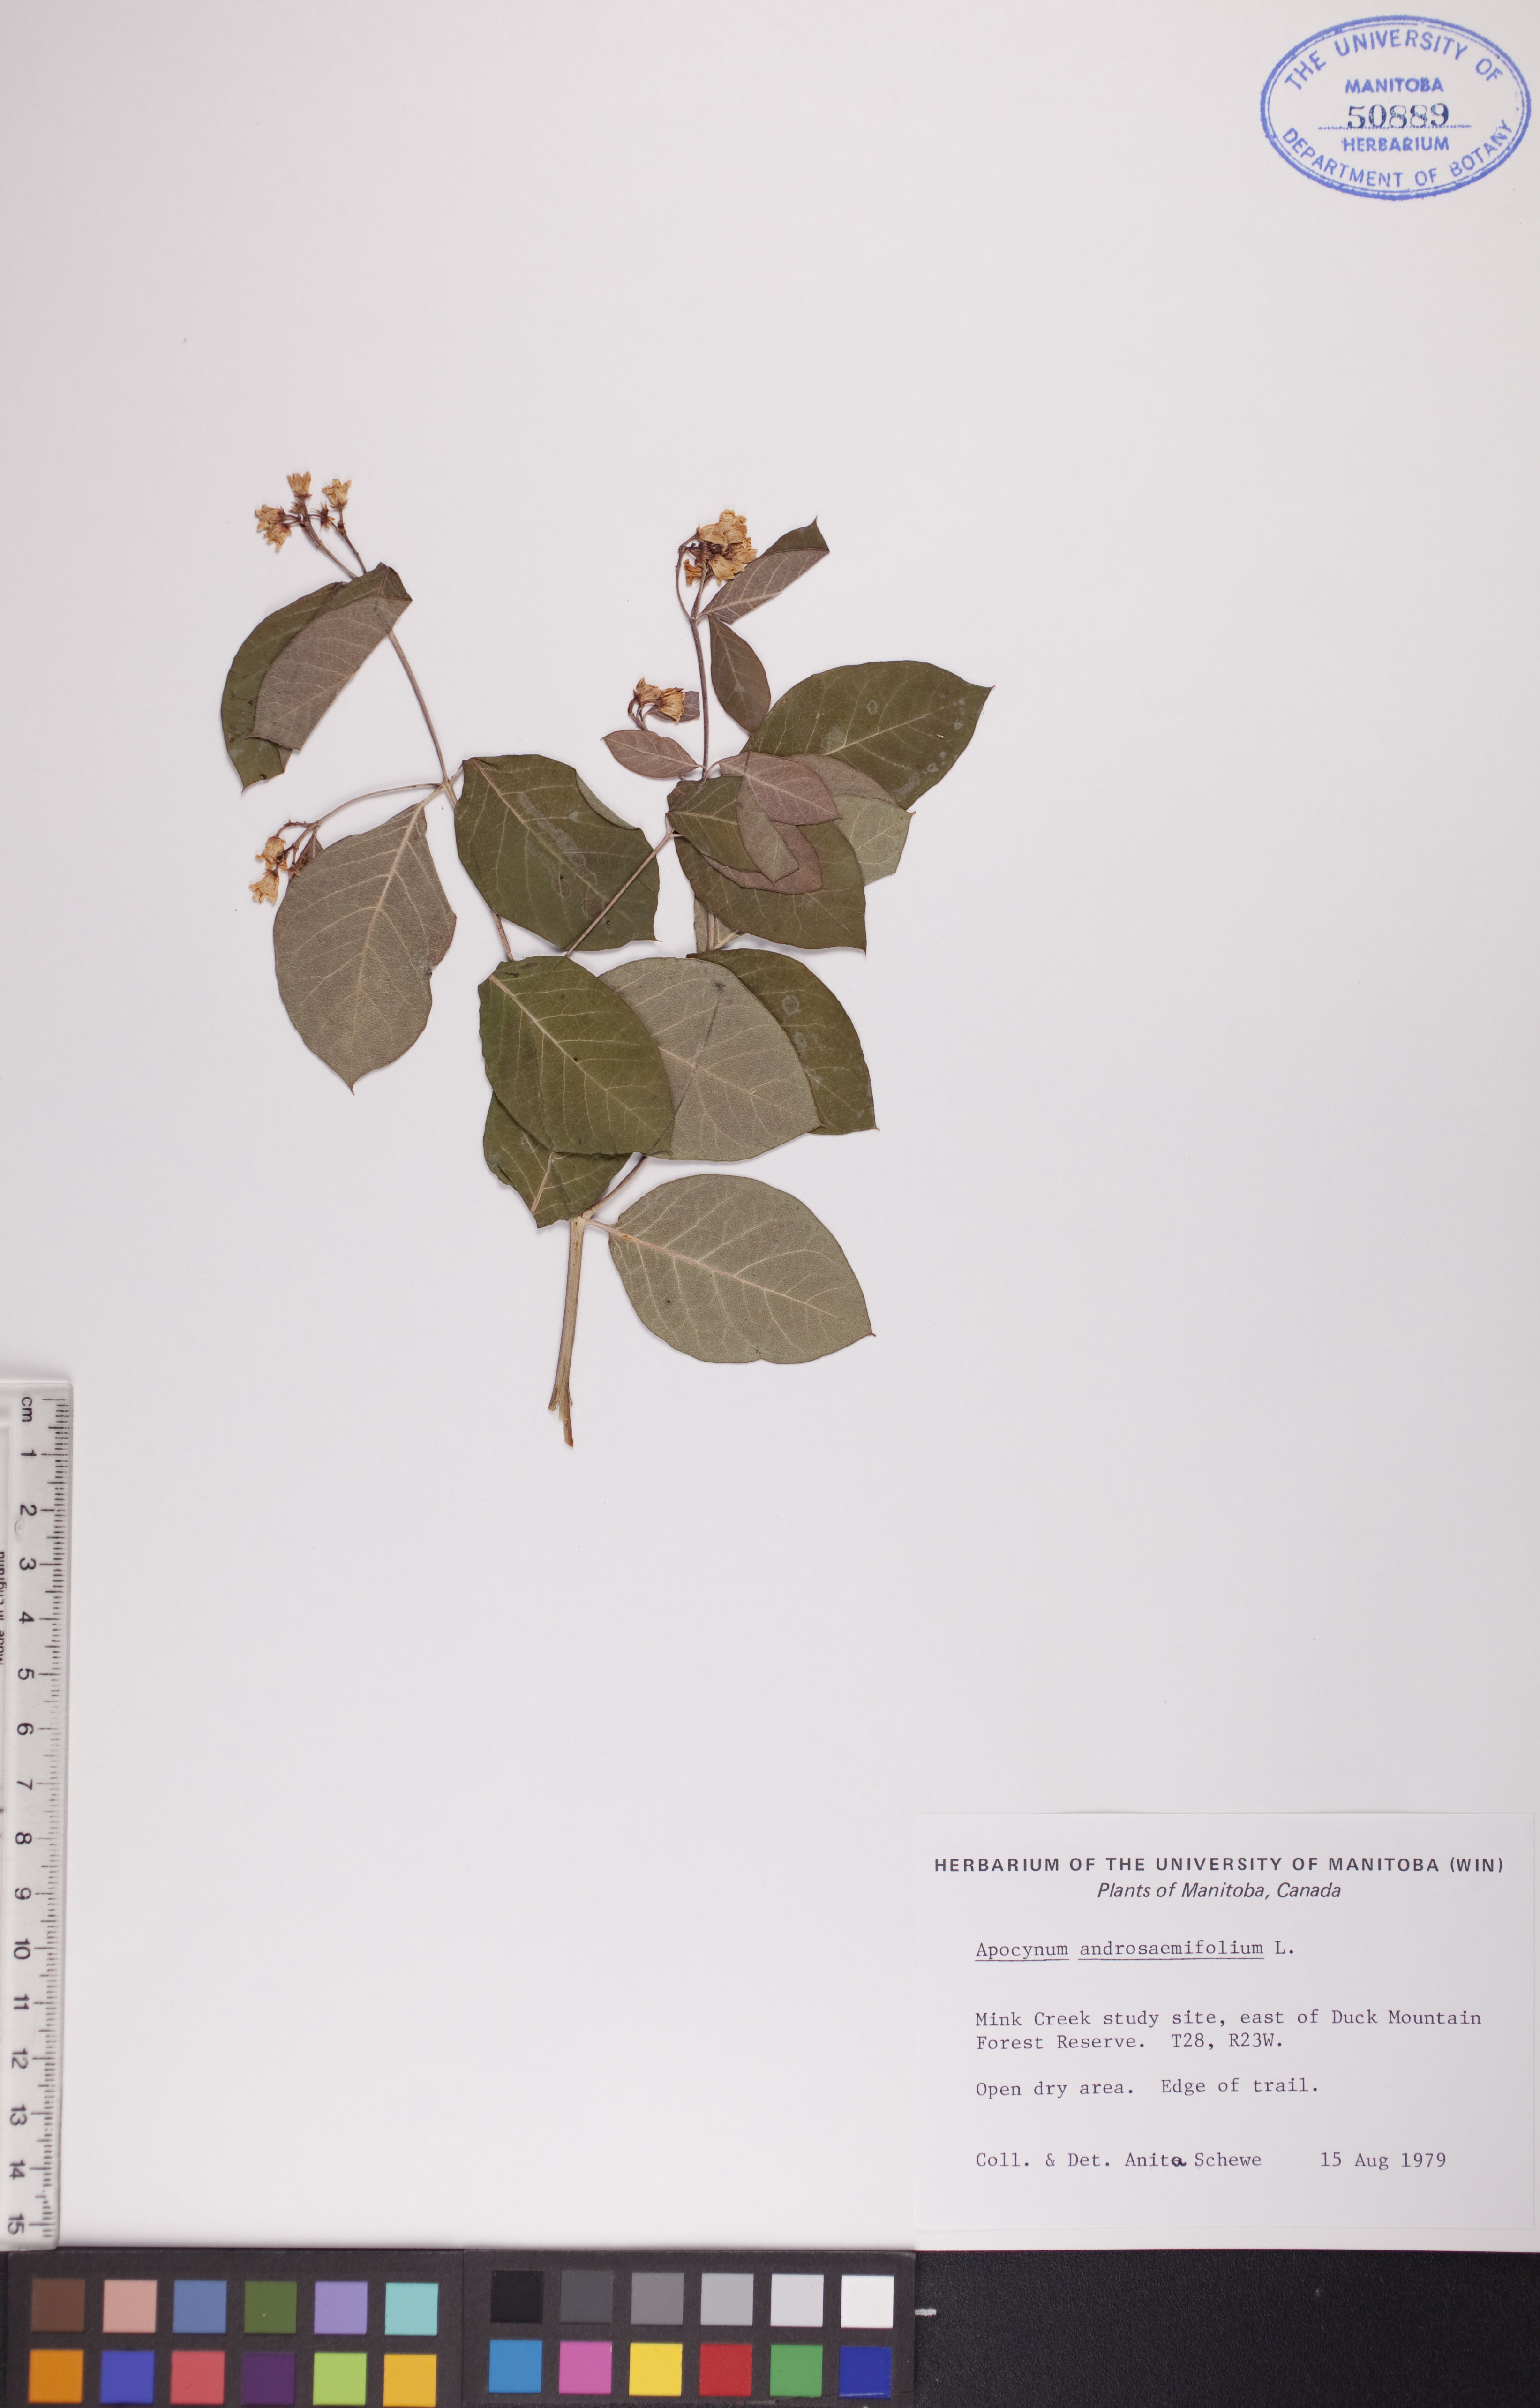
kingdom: Plantae
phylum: Tracheophyta
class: Magnoliopsida
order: Gentianales
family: Apocynaceae
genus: Apocynum
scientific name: Apocynum androsaemifolium
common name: Spreading dogbane
